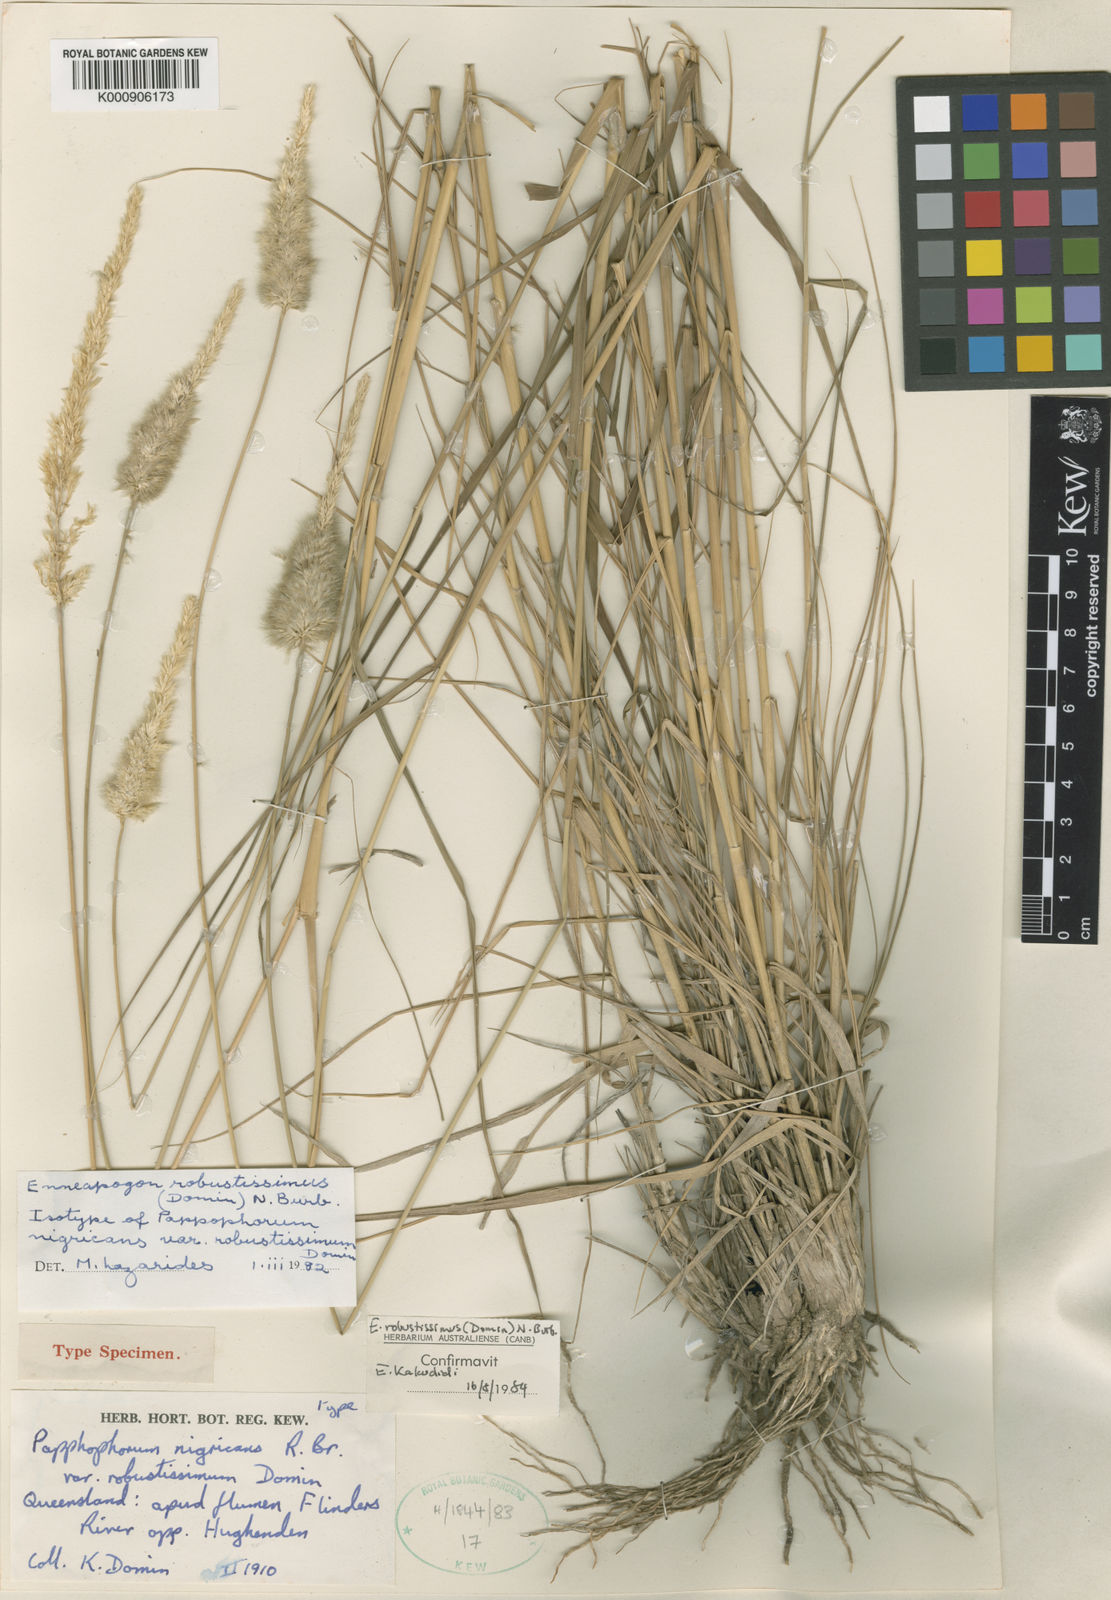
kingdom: Plantae
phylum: Tracheophyta
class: Liliopsida
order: Poales
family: Poaceae
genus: Enneapogon
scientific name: Enneapogon robustissimus
